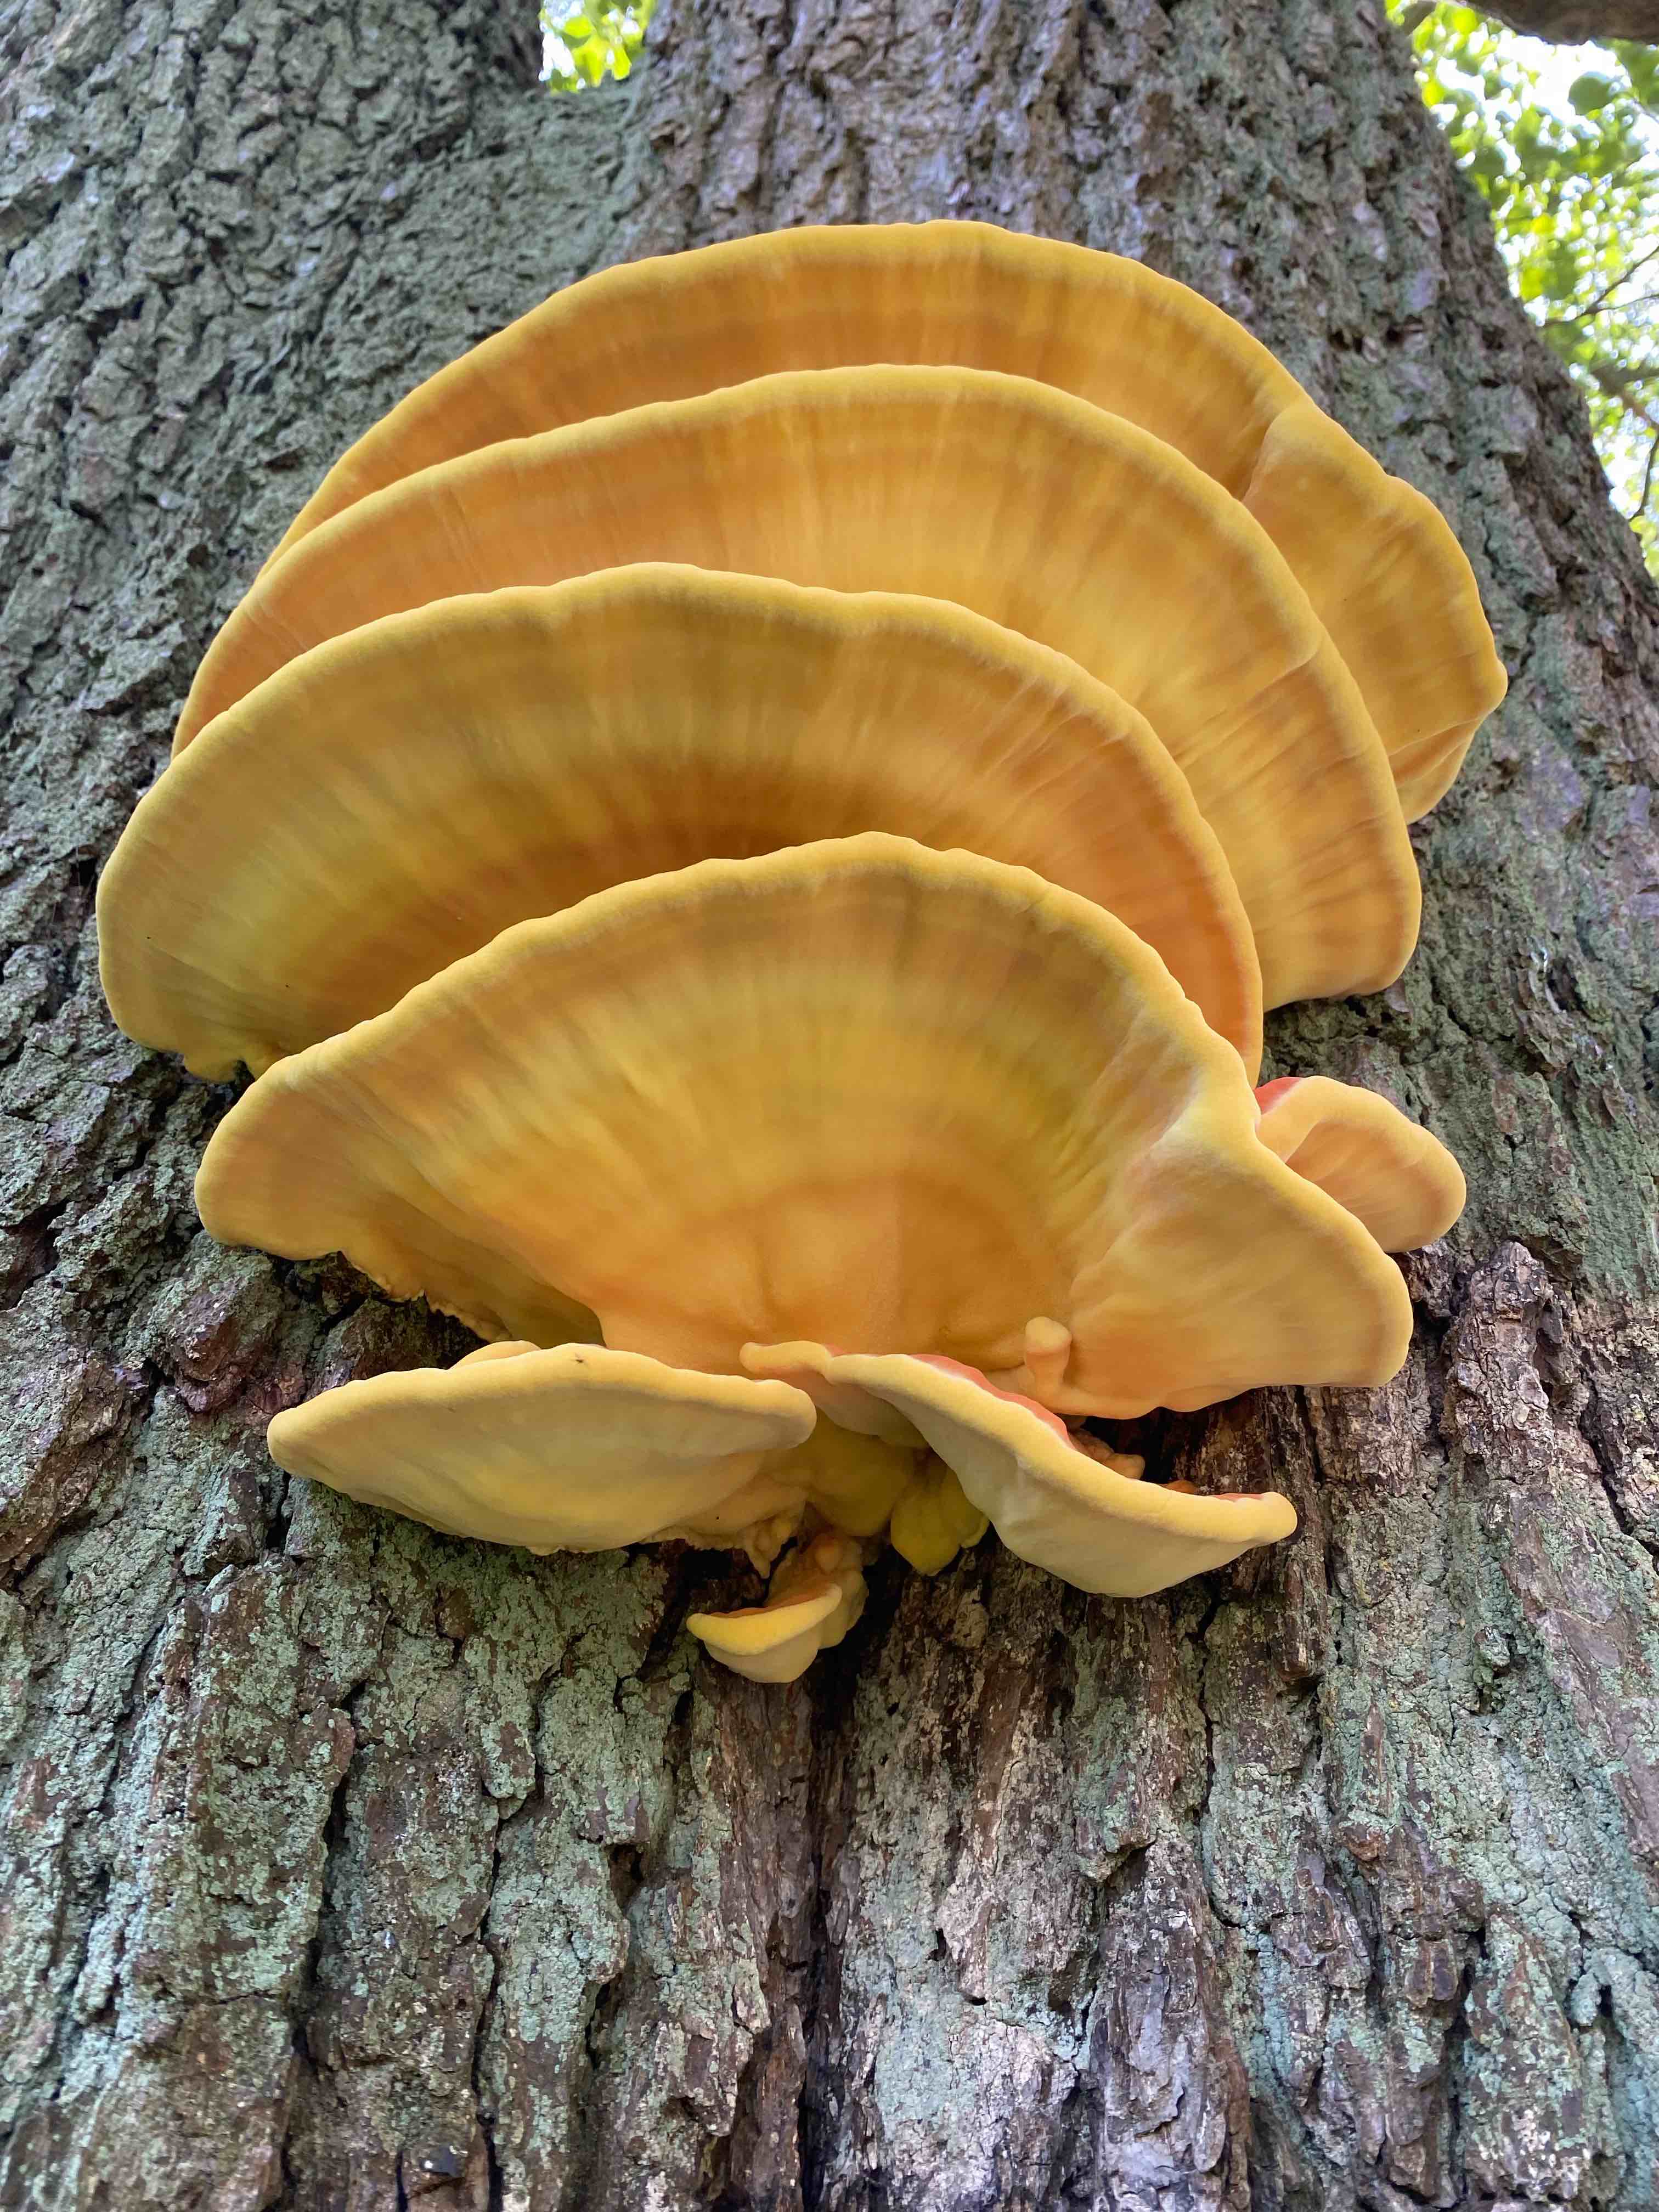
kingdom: Fungi
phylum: Basidiomycota
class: Agaricomycetes
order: Polyporales
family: Laetiporaceae
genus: Laetiporus
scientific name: Laetiporus sulphureus
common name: svovlporesvamp
